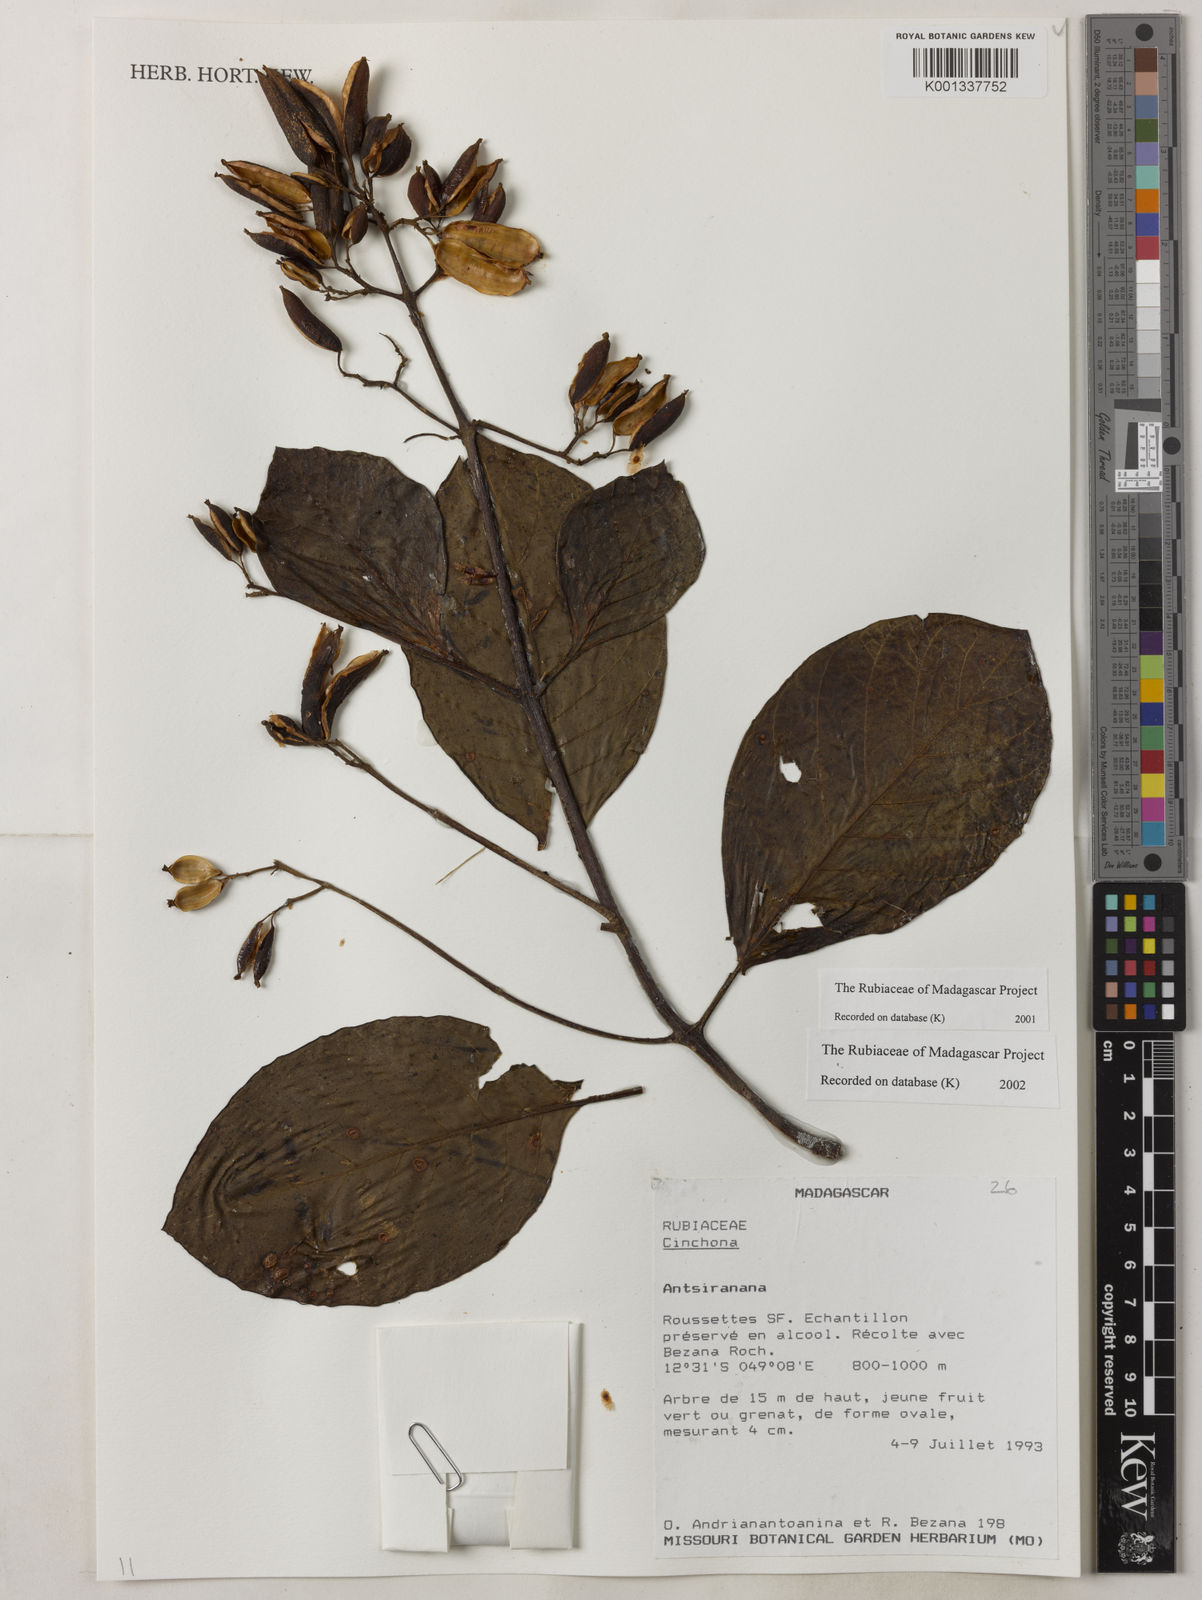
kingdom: Plantae
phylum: Tracheophyta
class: Magnoliopsida
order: Gentianales
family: Rubiaceae
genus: Cinchona
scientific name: Cinchona
